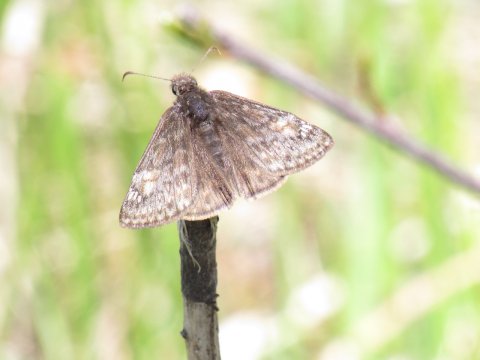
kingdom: Animalia
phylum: Arthropoda
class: Insecta
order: Lepidoptera
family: Hesperiidae
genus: Gesta
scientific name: Gesta
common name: Wild Indigo Duskywing
